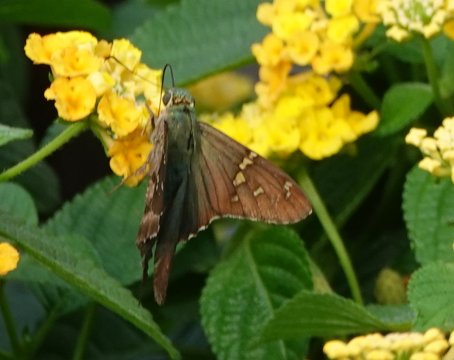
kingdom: Animalia
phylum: Arthropoda
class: Insecta
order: Lepidoptera
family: Hesperiidae
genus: Urbanus
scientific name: Urbanus proteus
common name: Long-tailed Skipper
